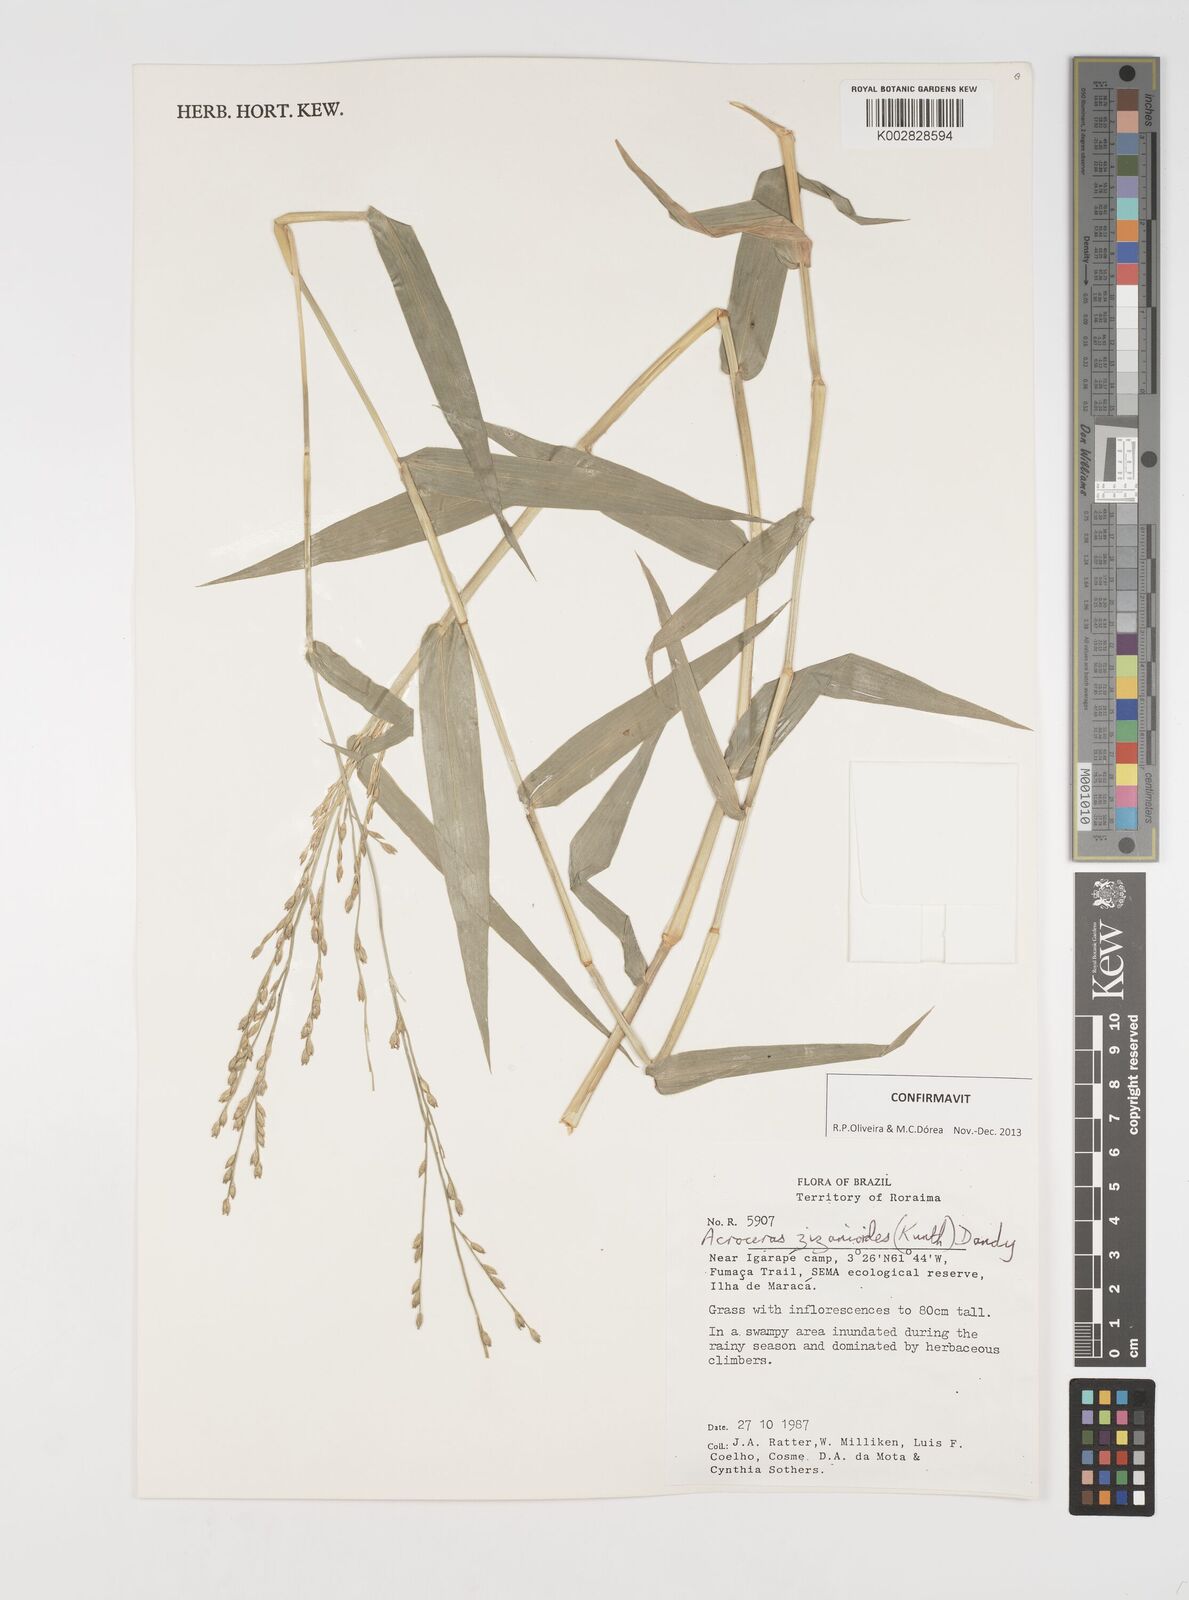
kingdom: Plantae
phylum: Tracheophyta
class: Liliopsida
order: Poales
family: Poaceae
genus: Acroceras
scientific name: Acroceras zizanioides
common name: Oat grass
